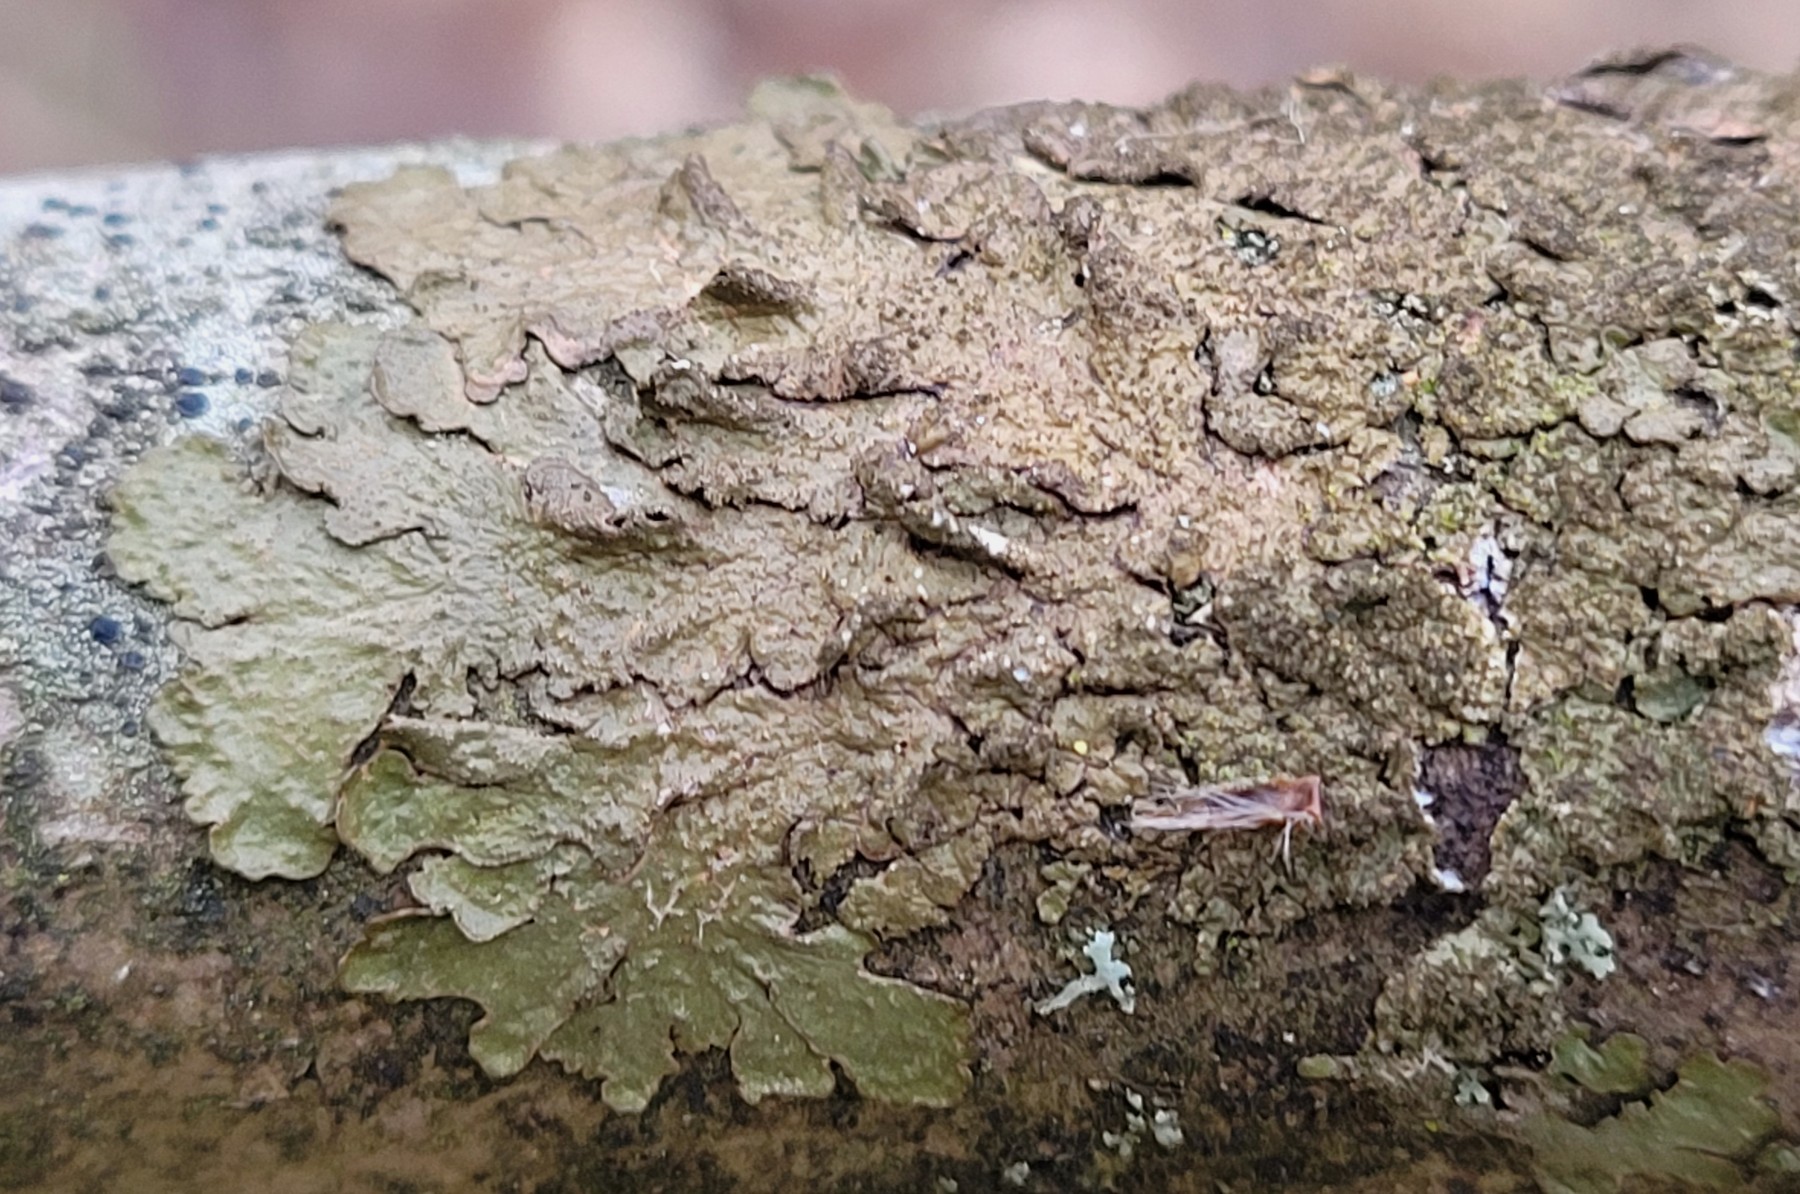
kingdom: Fungi
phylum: Ascomycota
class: Lecanoromycetes
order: Lecanorales
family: Parmeliaceae
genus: Melanelixia
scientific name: Melanelixia subaurifera
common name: guldpudret skållav
